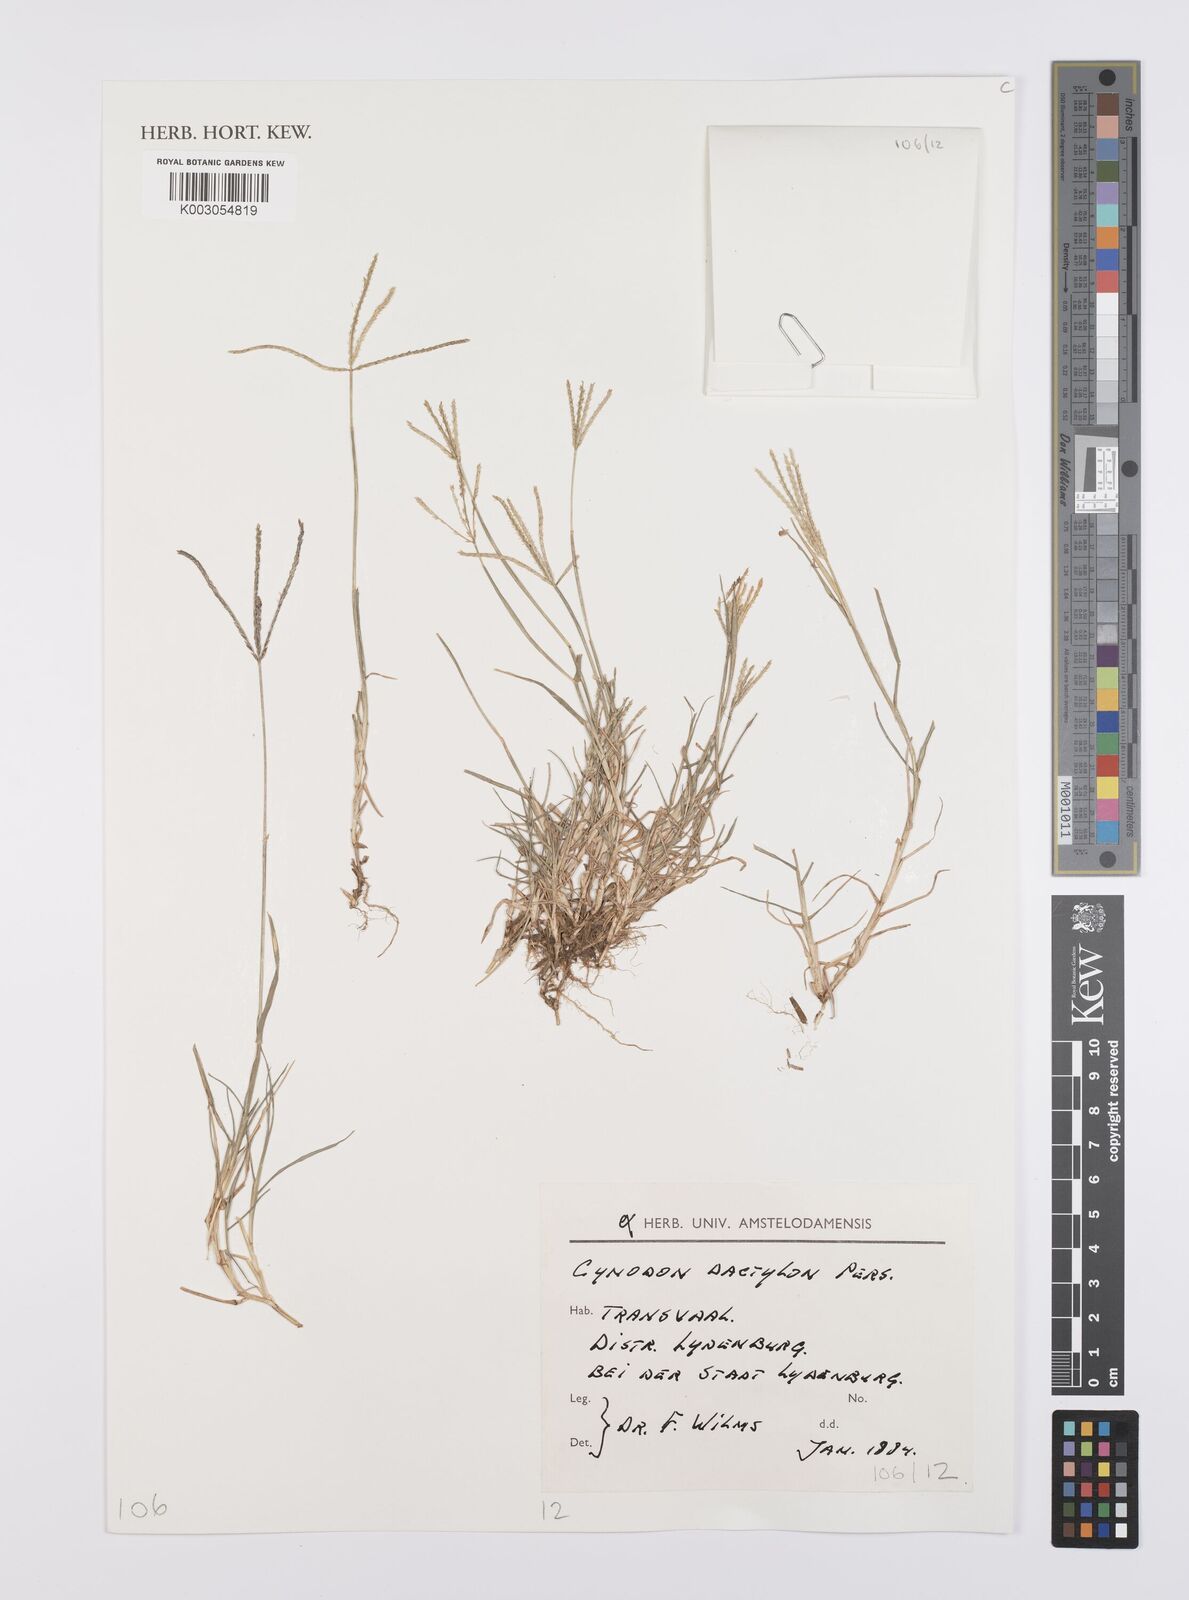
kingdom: Plantae
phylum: Tracheophyta
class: Liliopsida
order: Poales
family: Poaceae
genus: Cynodon
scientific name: Cynodon dactylon
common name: Bermuda grass
